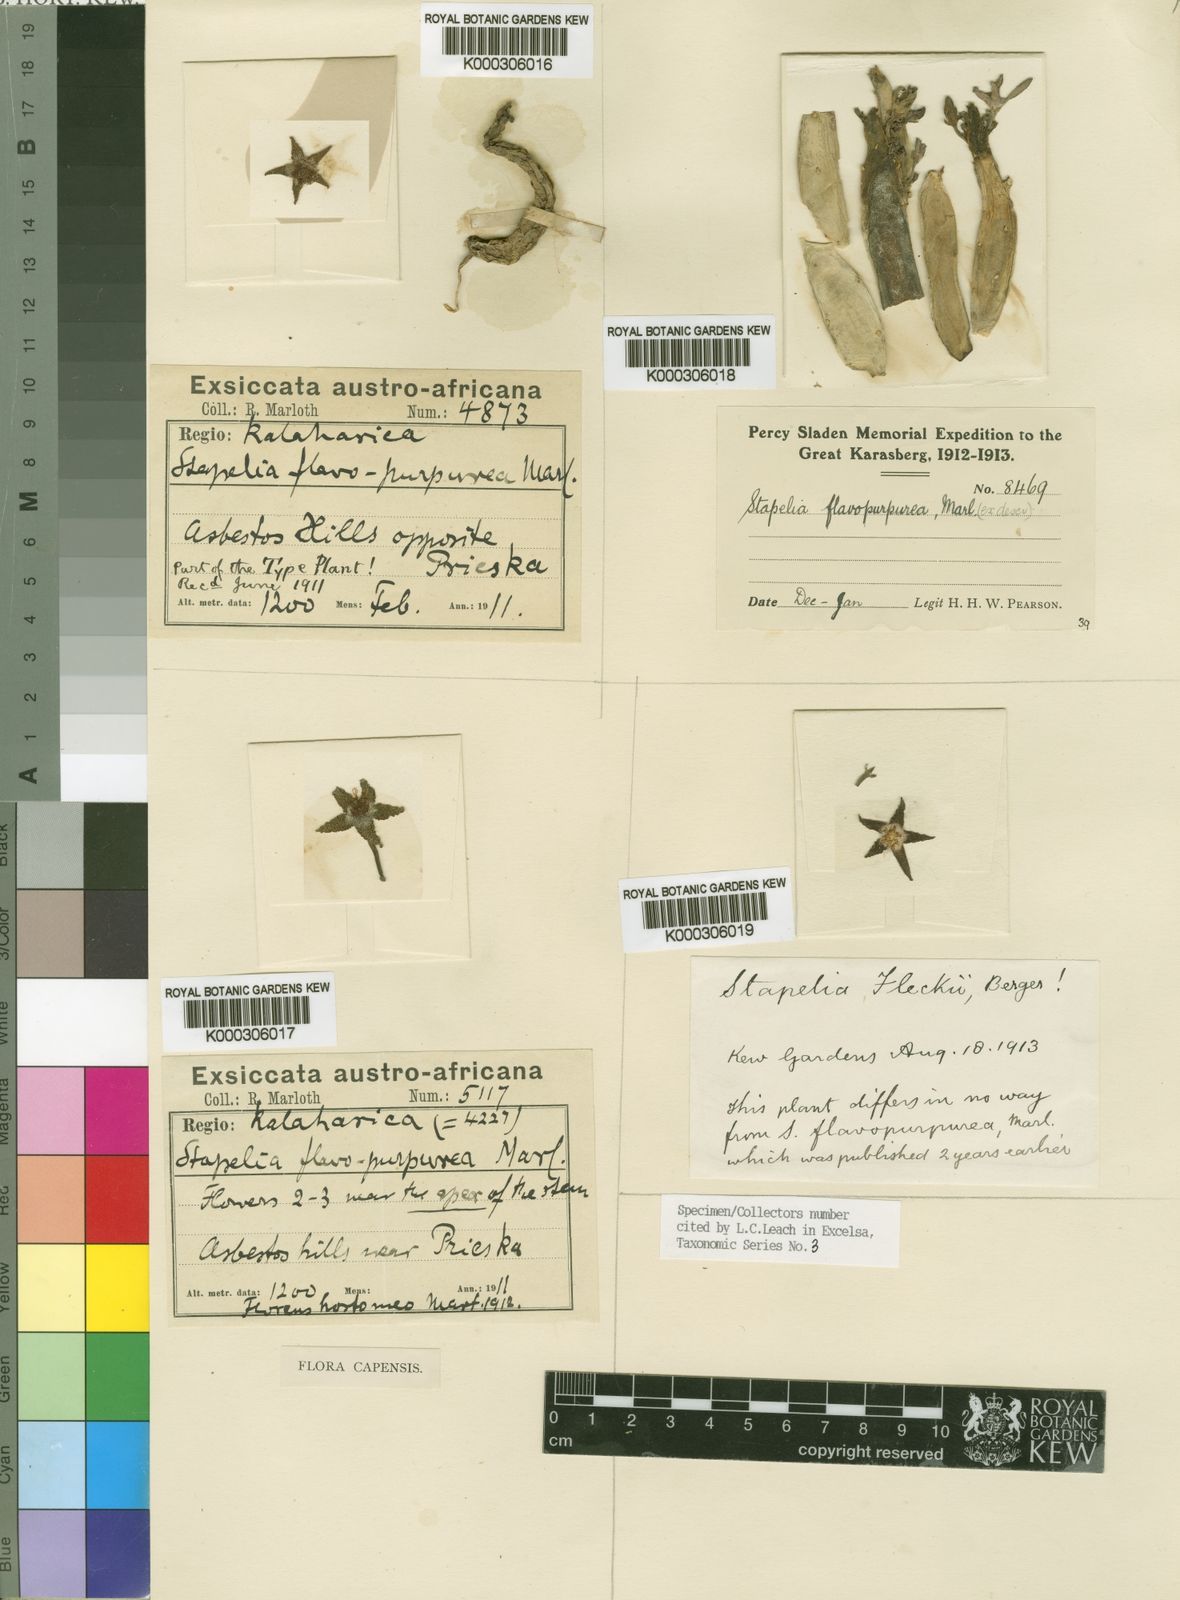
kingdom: Plantae
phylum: Tracheophyta
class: Magnoliopsida
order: Gentianales
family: Apocynaceae
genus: Ceropegia
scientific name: Ceropegia flavopurpurea
